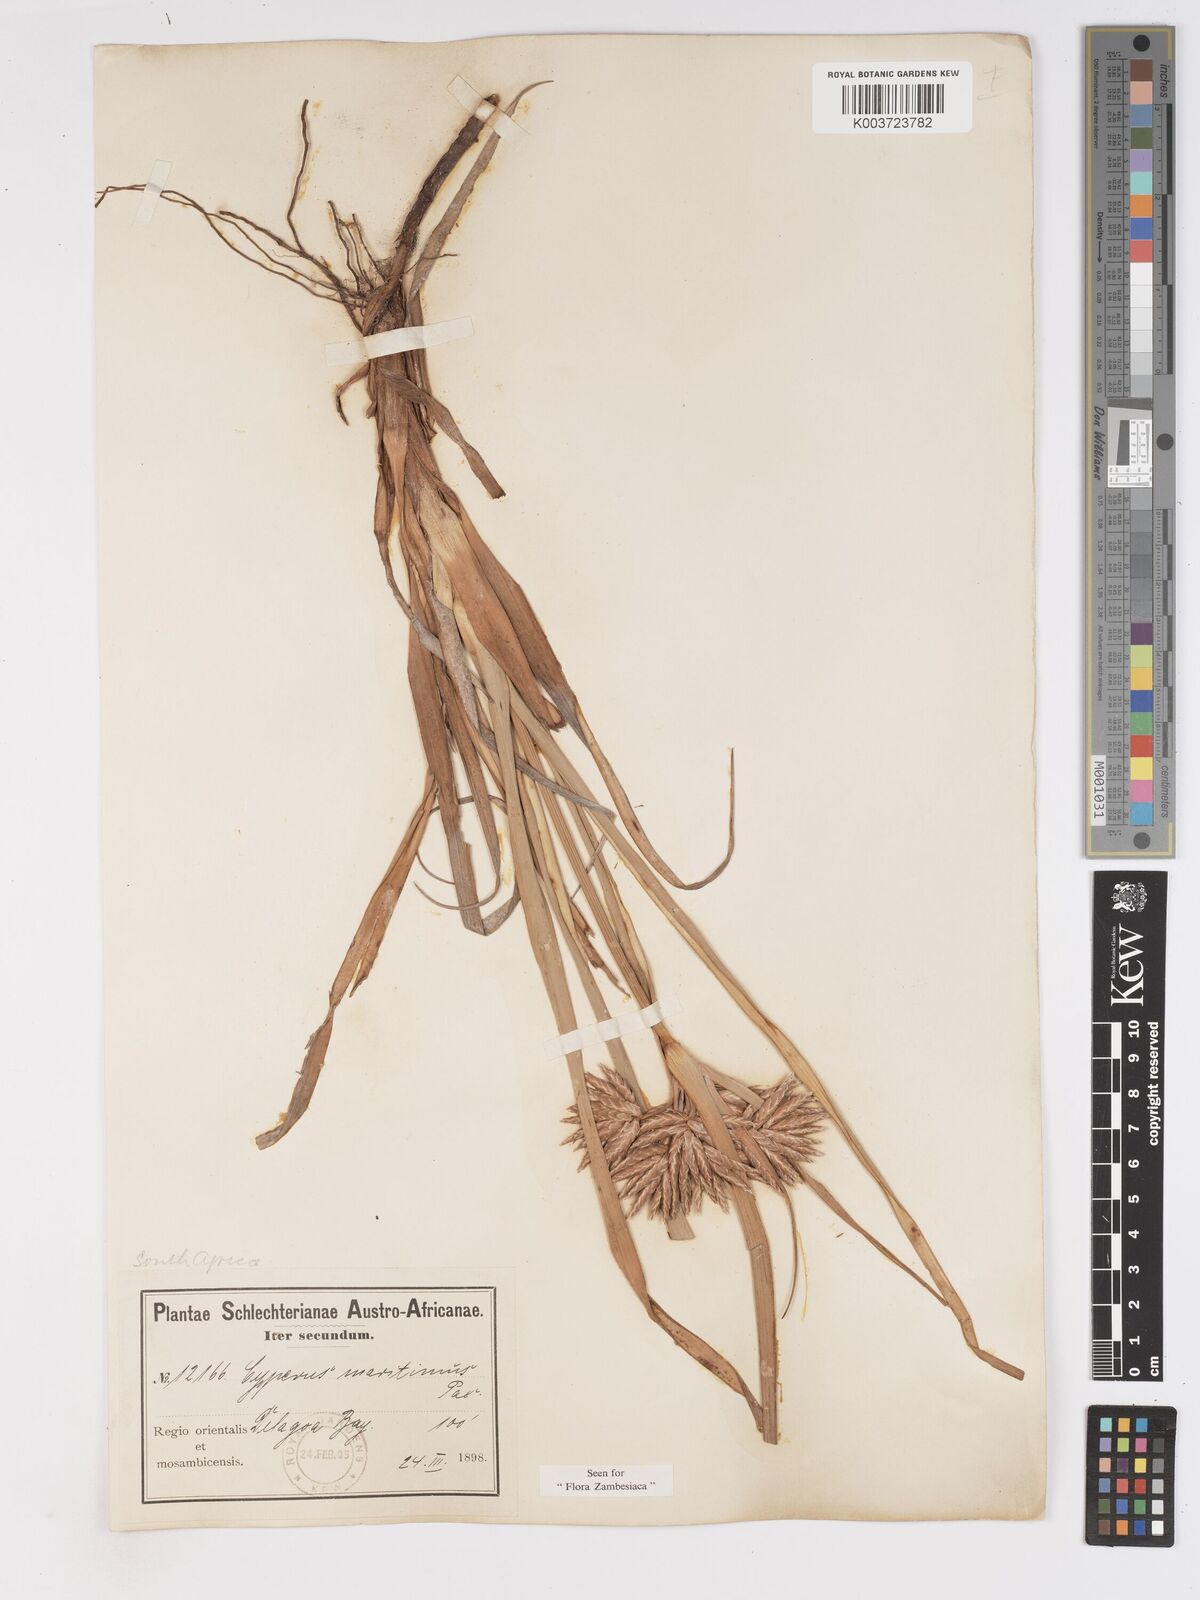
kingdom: Plantae
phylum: Tracheophyta
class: Liliopsida
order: Poales
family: Cyperaceae
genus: Cyperus
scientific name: Cyperus crassipes
